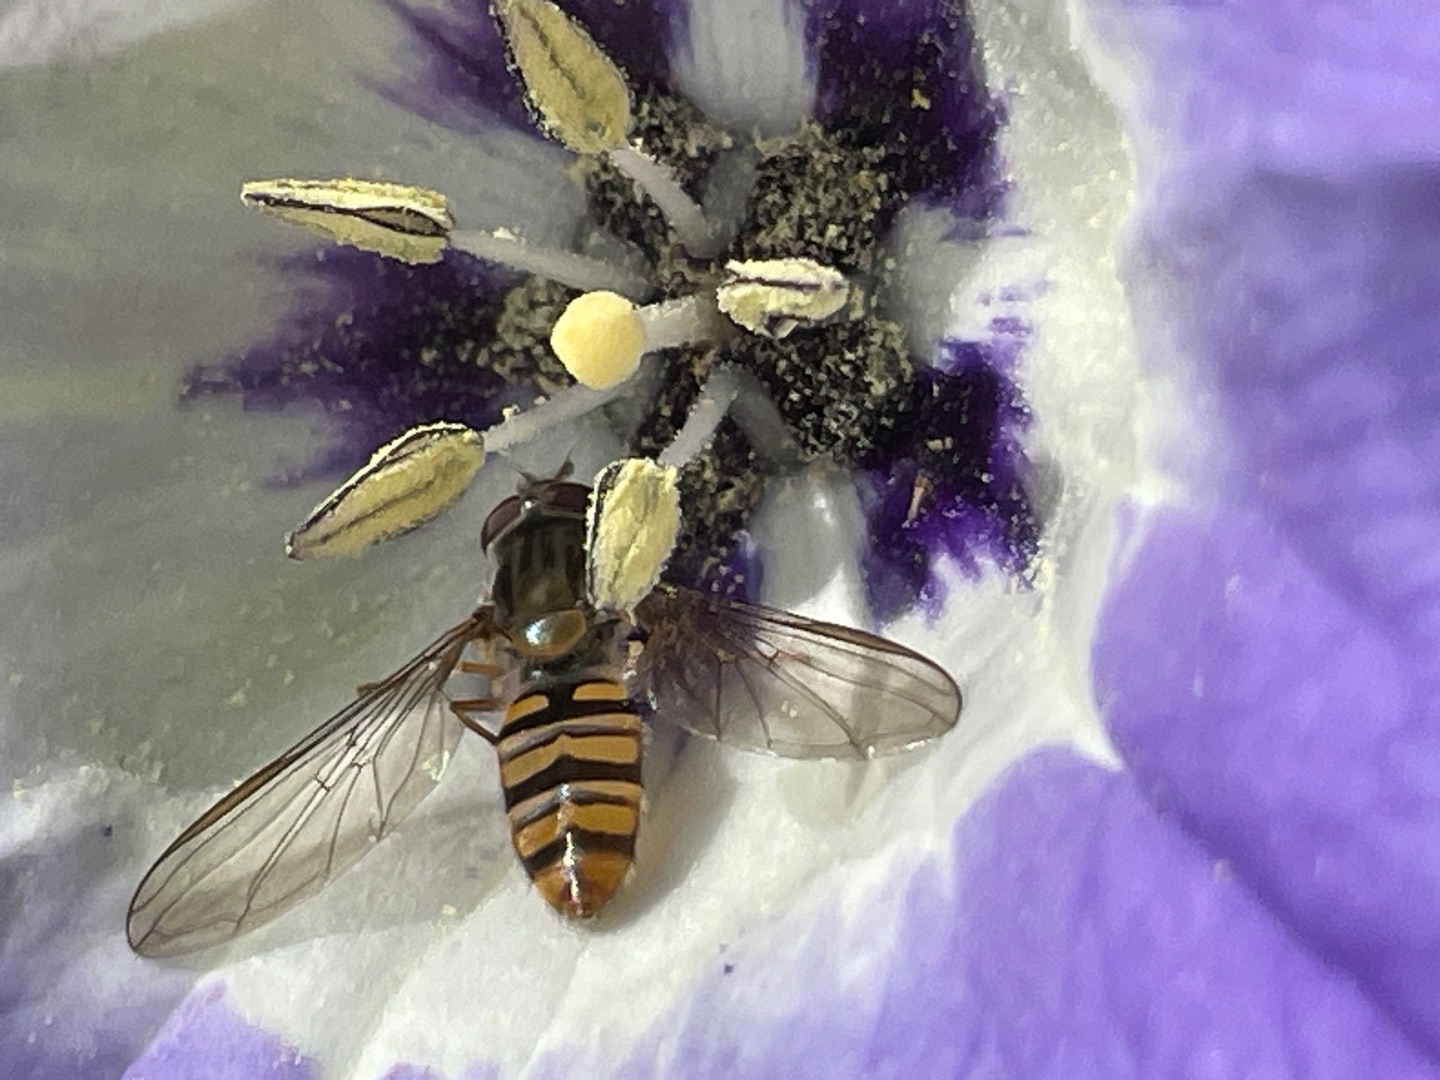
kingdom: Animalia
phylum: Arthropoda
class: Insecta
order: Diptera
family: Syrphidae
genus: Episyrphus
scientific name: Episyrphus balteatus
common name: Dobbeltbåndet svirreflue
